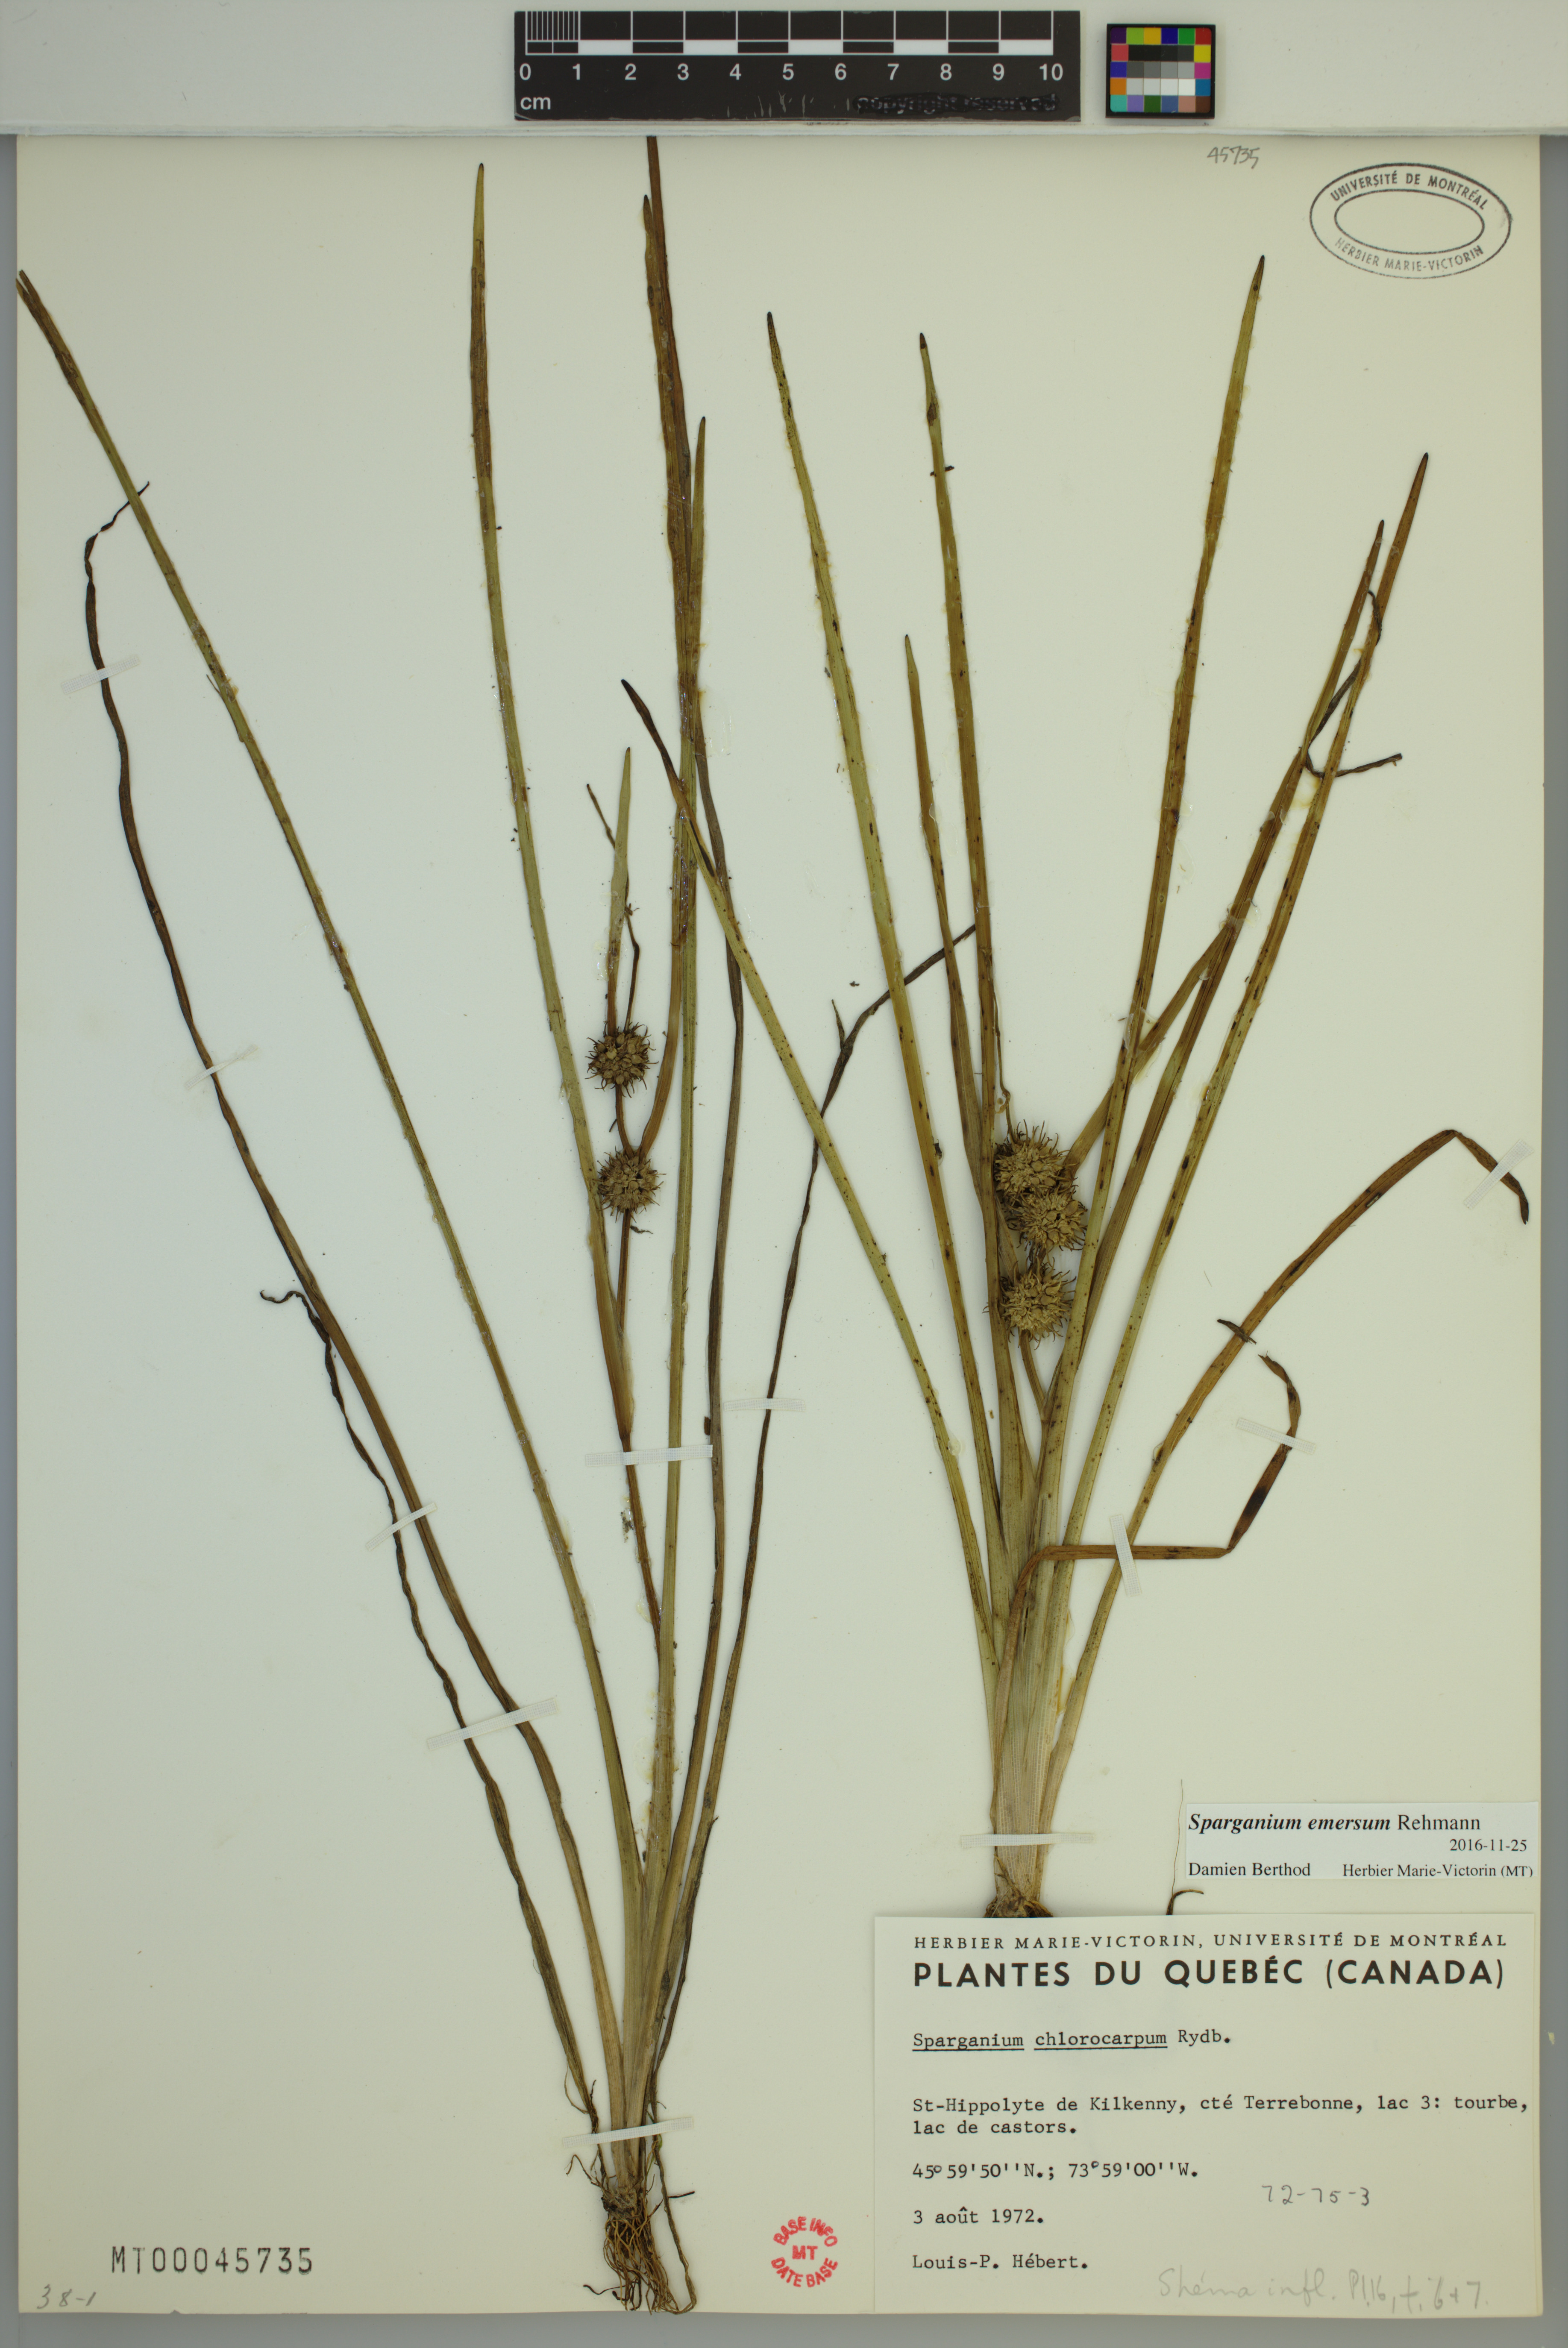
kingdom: Plantae
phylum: Tracheophyta
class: Liliopsida
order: Poales
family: Typhaceae
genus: Sparganium
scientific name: Sparganium emersum
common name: Unbranched bur-reed
